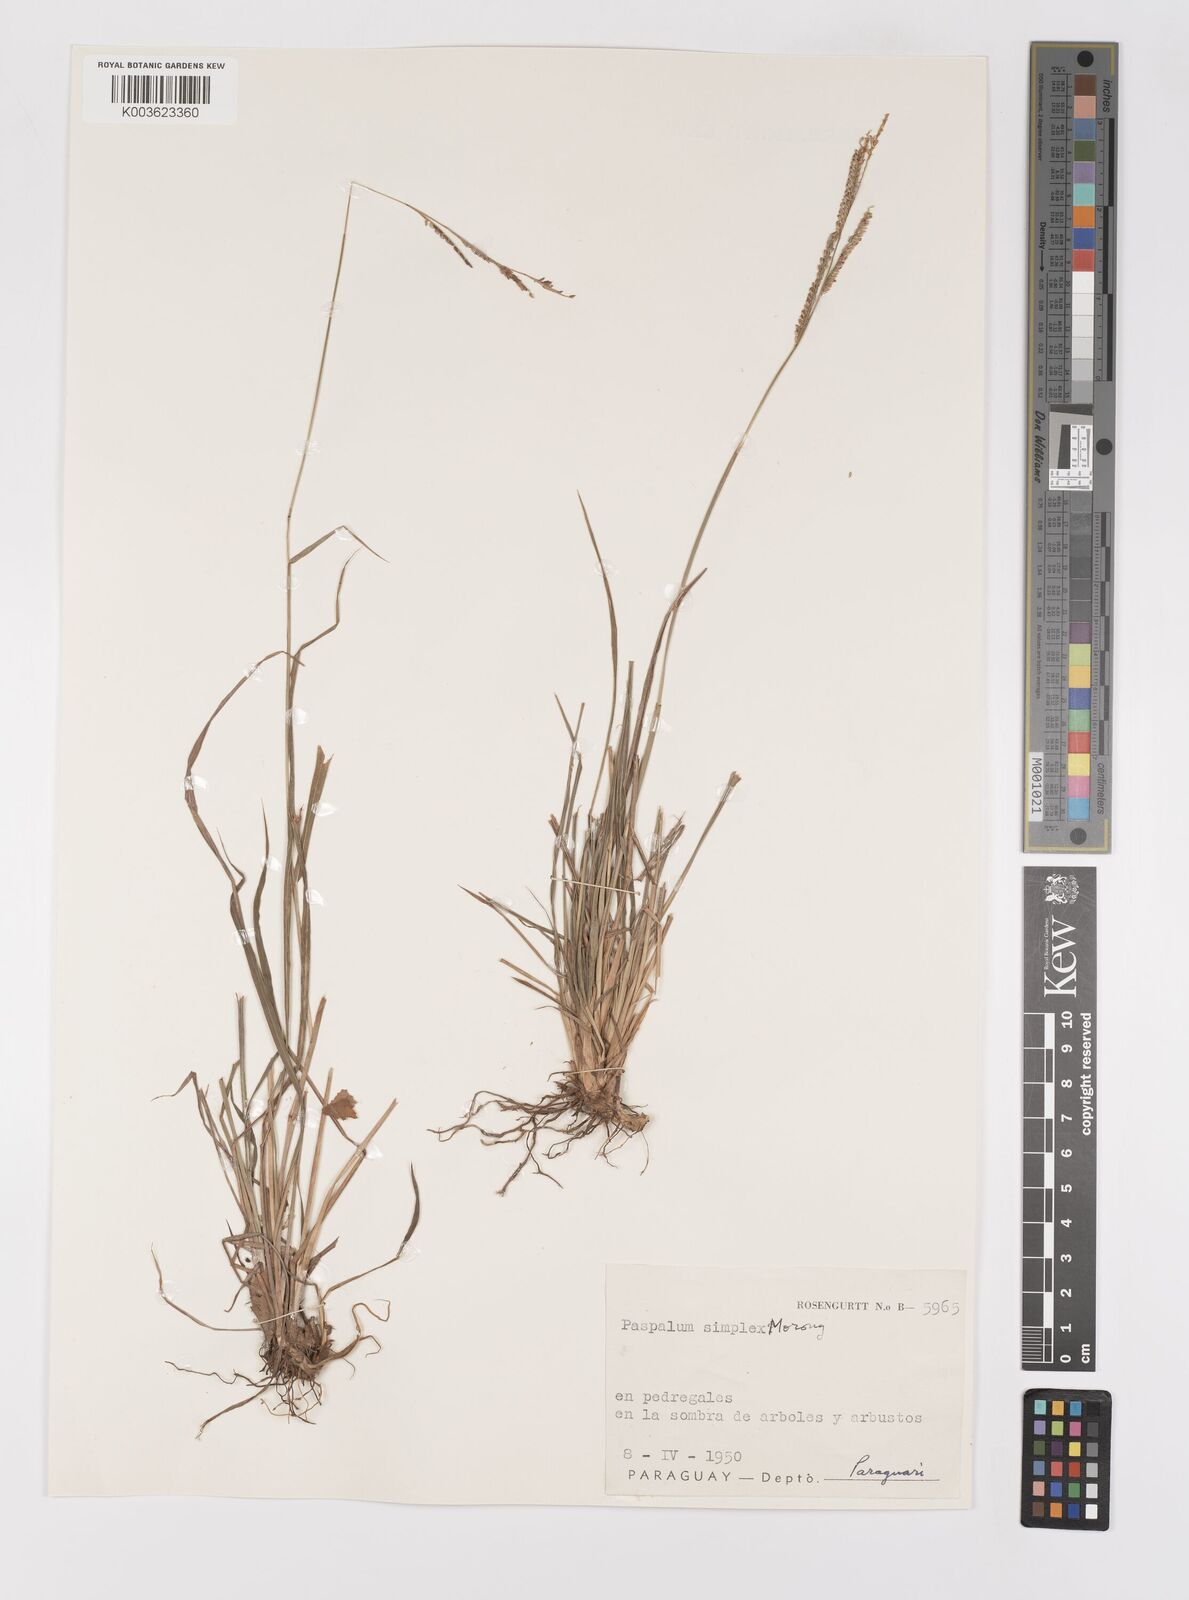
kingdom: Plantae
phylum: Tracheophyta
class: Liliopsida
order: Poales
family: Poaceae
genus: Paspalum
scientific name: Paspalum simplex
